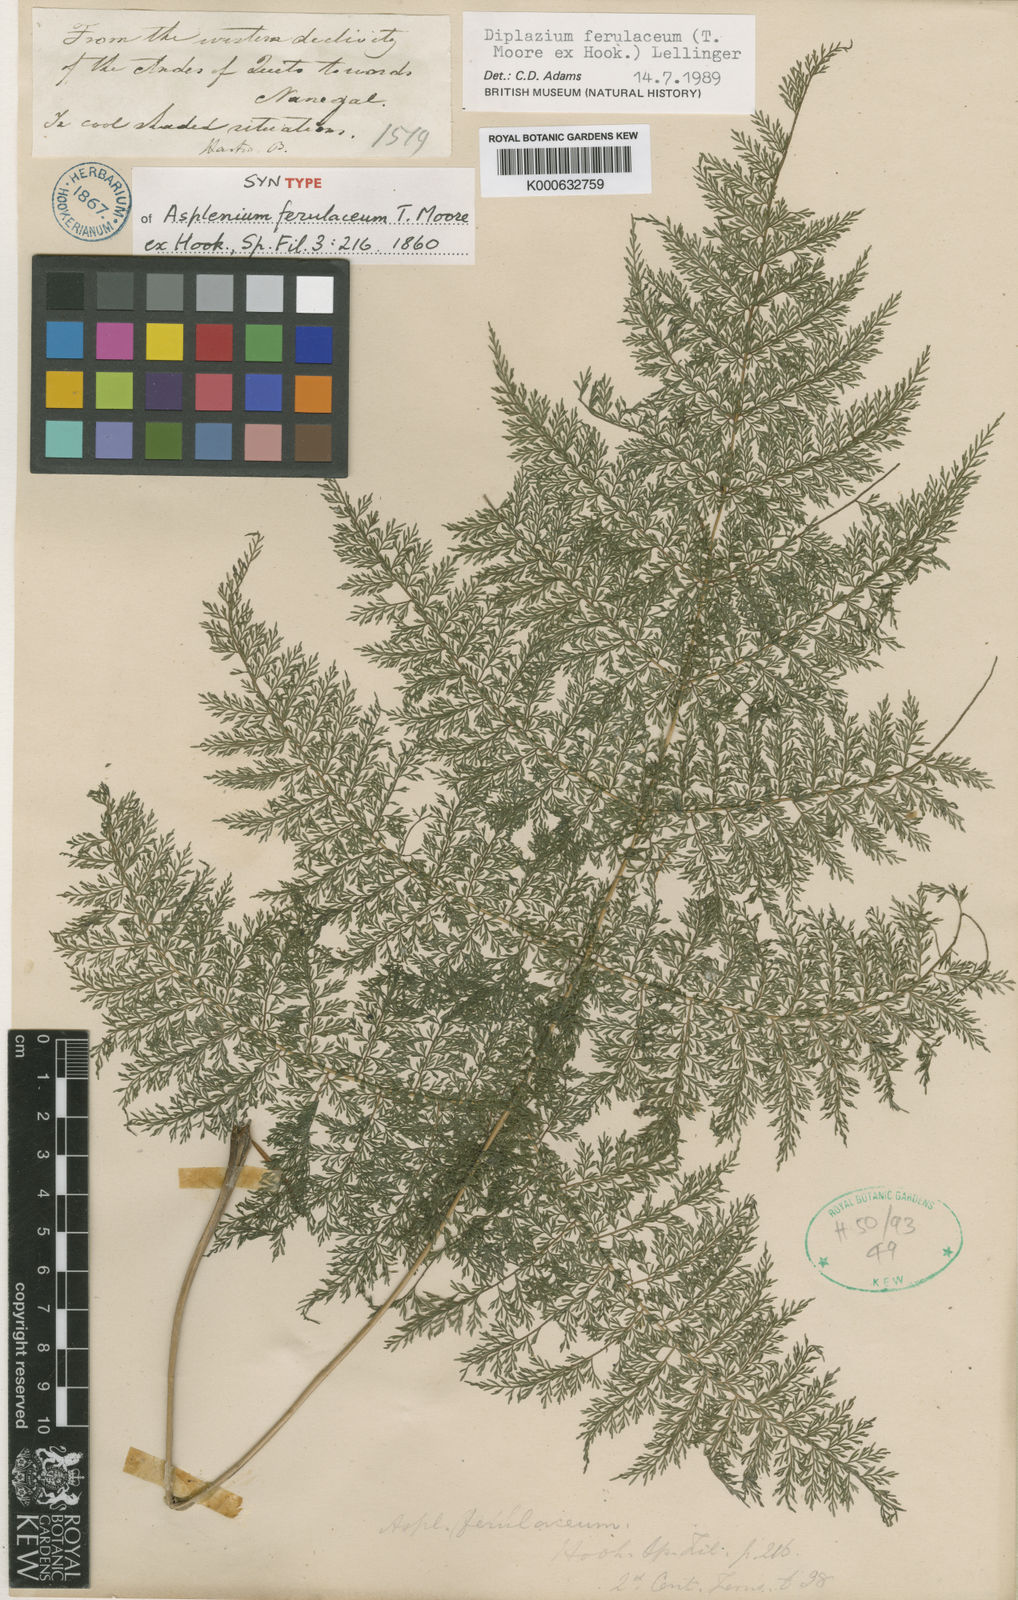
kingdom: Plantae
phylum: Tracheophyta
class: Polypodiopsida
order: Polypodiales
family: Athyriaceae
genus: Athyrium
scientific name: Athyrium ferulaceum
